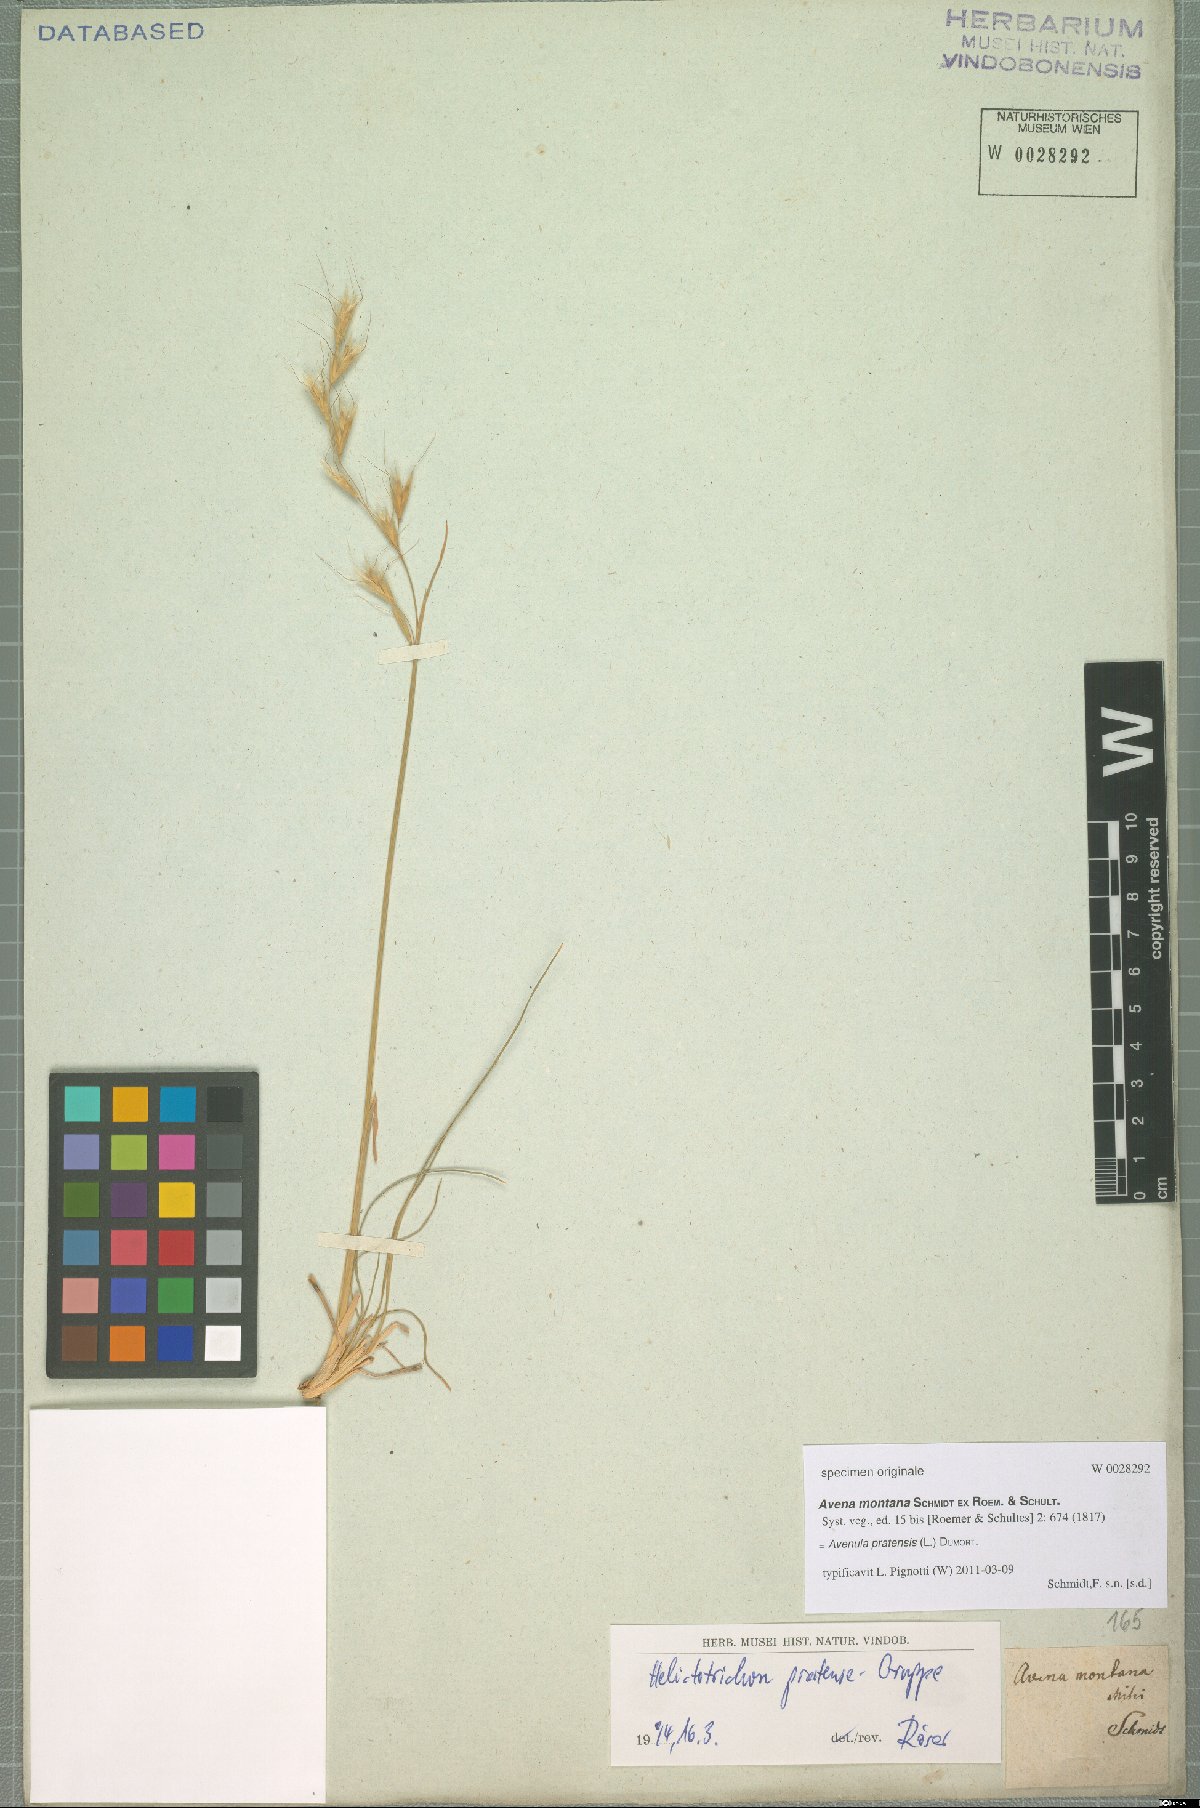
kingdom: Plantae
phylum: Tracheophyta
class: Liliopsida
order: Poales
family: Poaceae
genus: Helictochloa
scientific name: Helictochloa pratensis
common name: Meadow oat grass
